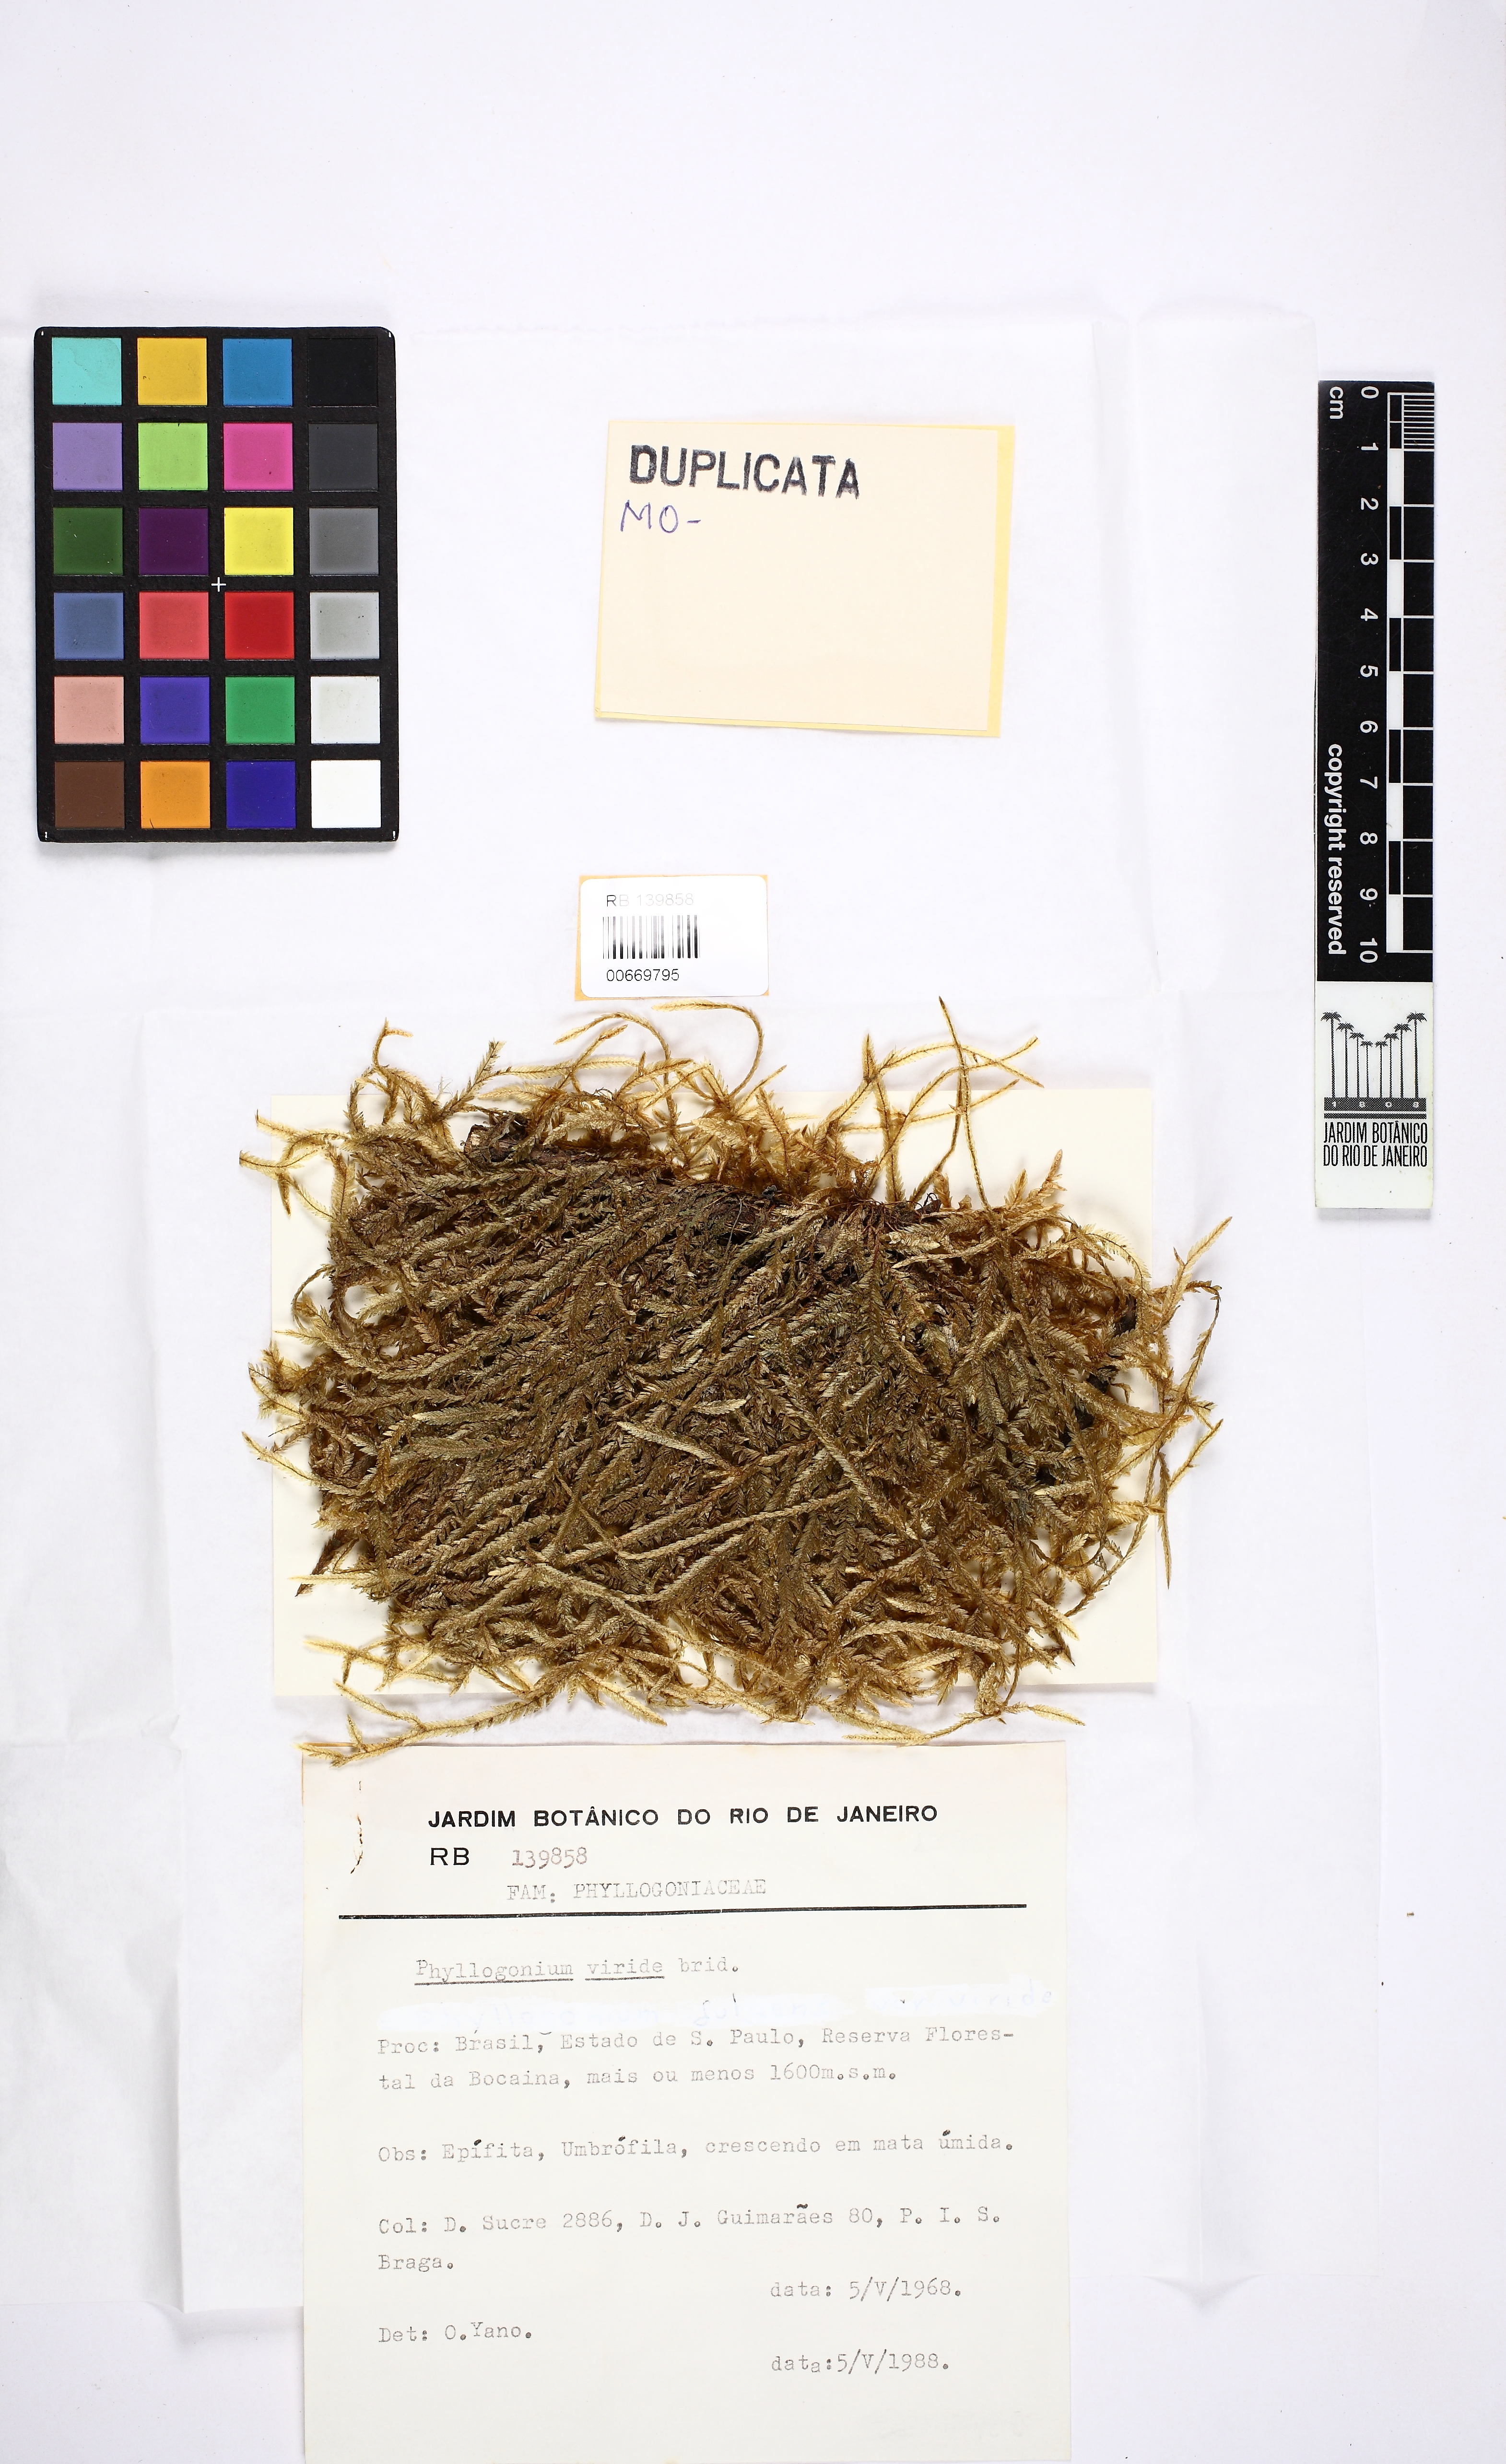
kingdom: Plantae
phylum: Bryophyta
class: Bryopsida
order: Hypnales
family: Phyllogoniaceae
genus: Phyllogonium
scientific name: Phyllogonium viride
